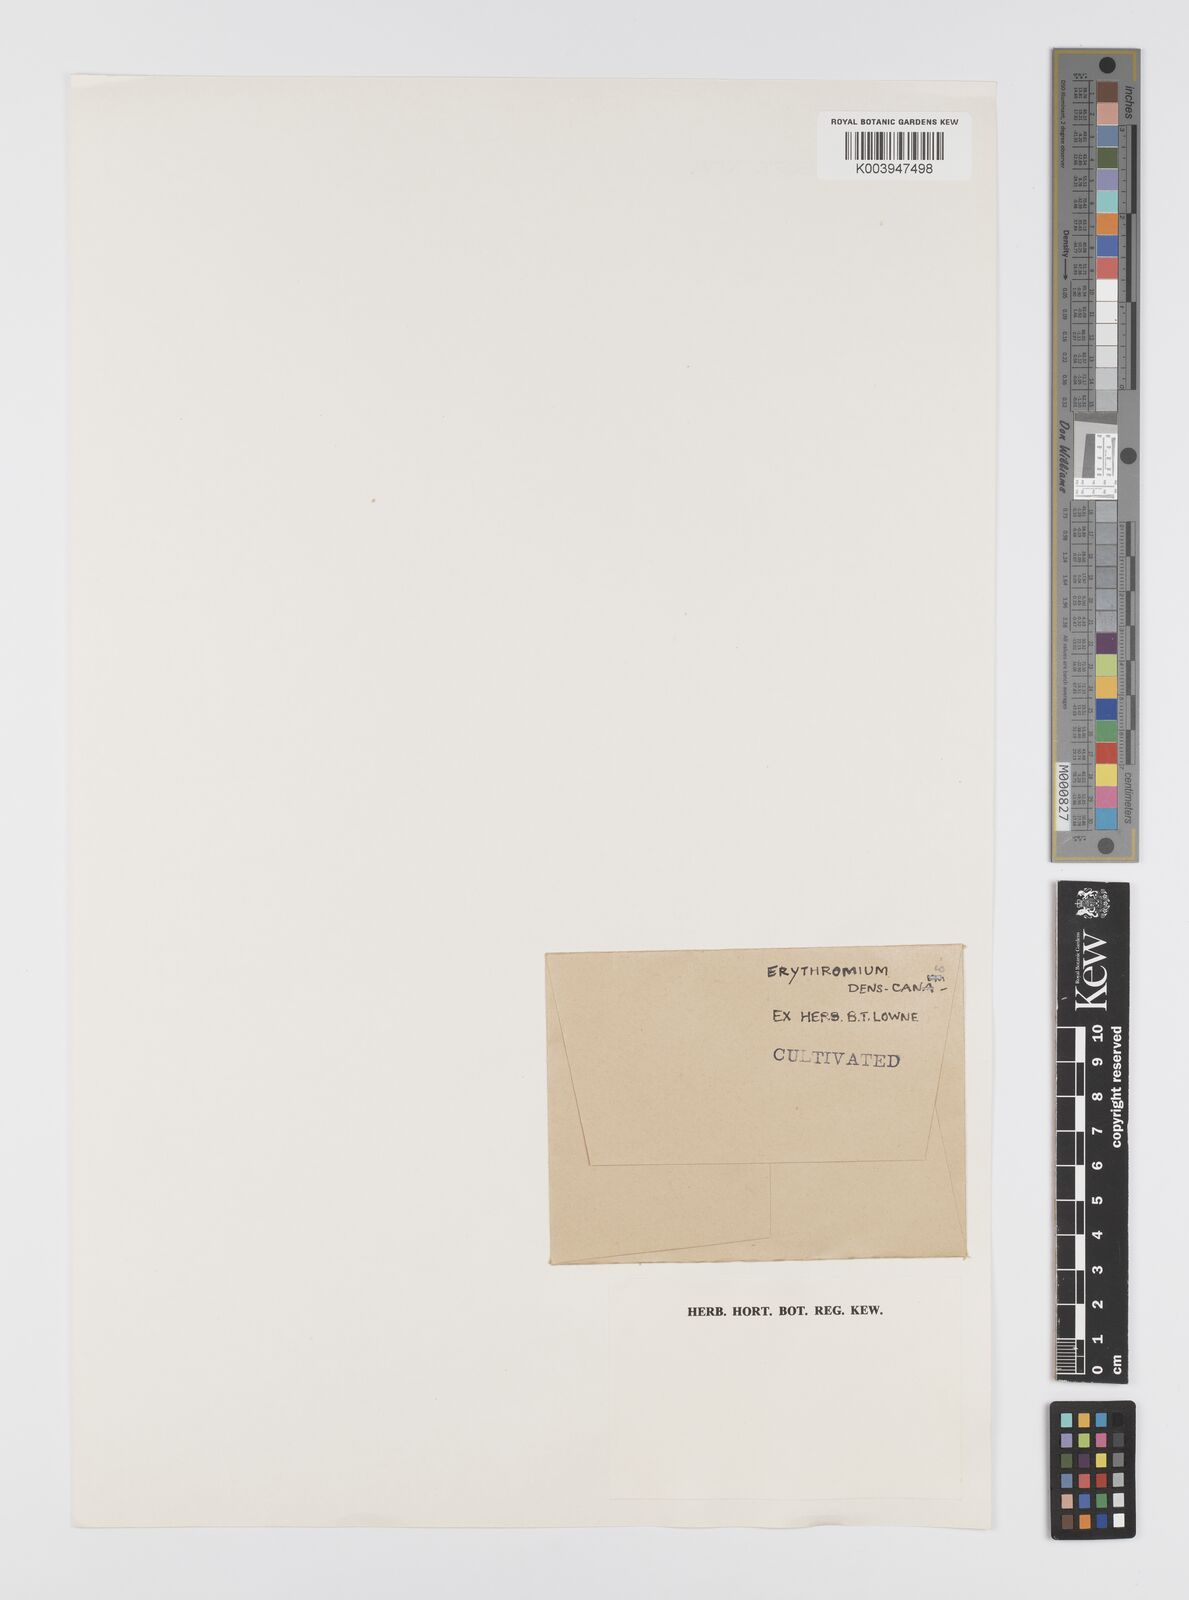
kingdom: Plantae
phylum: Tracheophyta
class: Liliopsida
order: Liliales
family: Liliaceae
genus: Erythronium
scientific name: Erythronium dens-canis
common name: Dog's-tooth-violet
